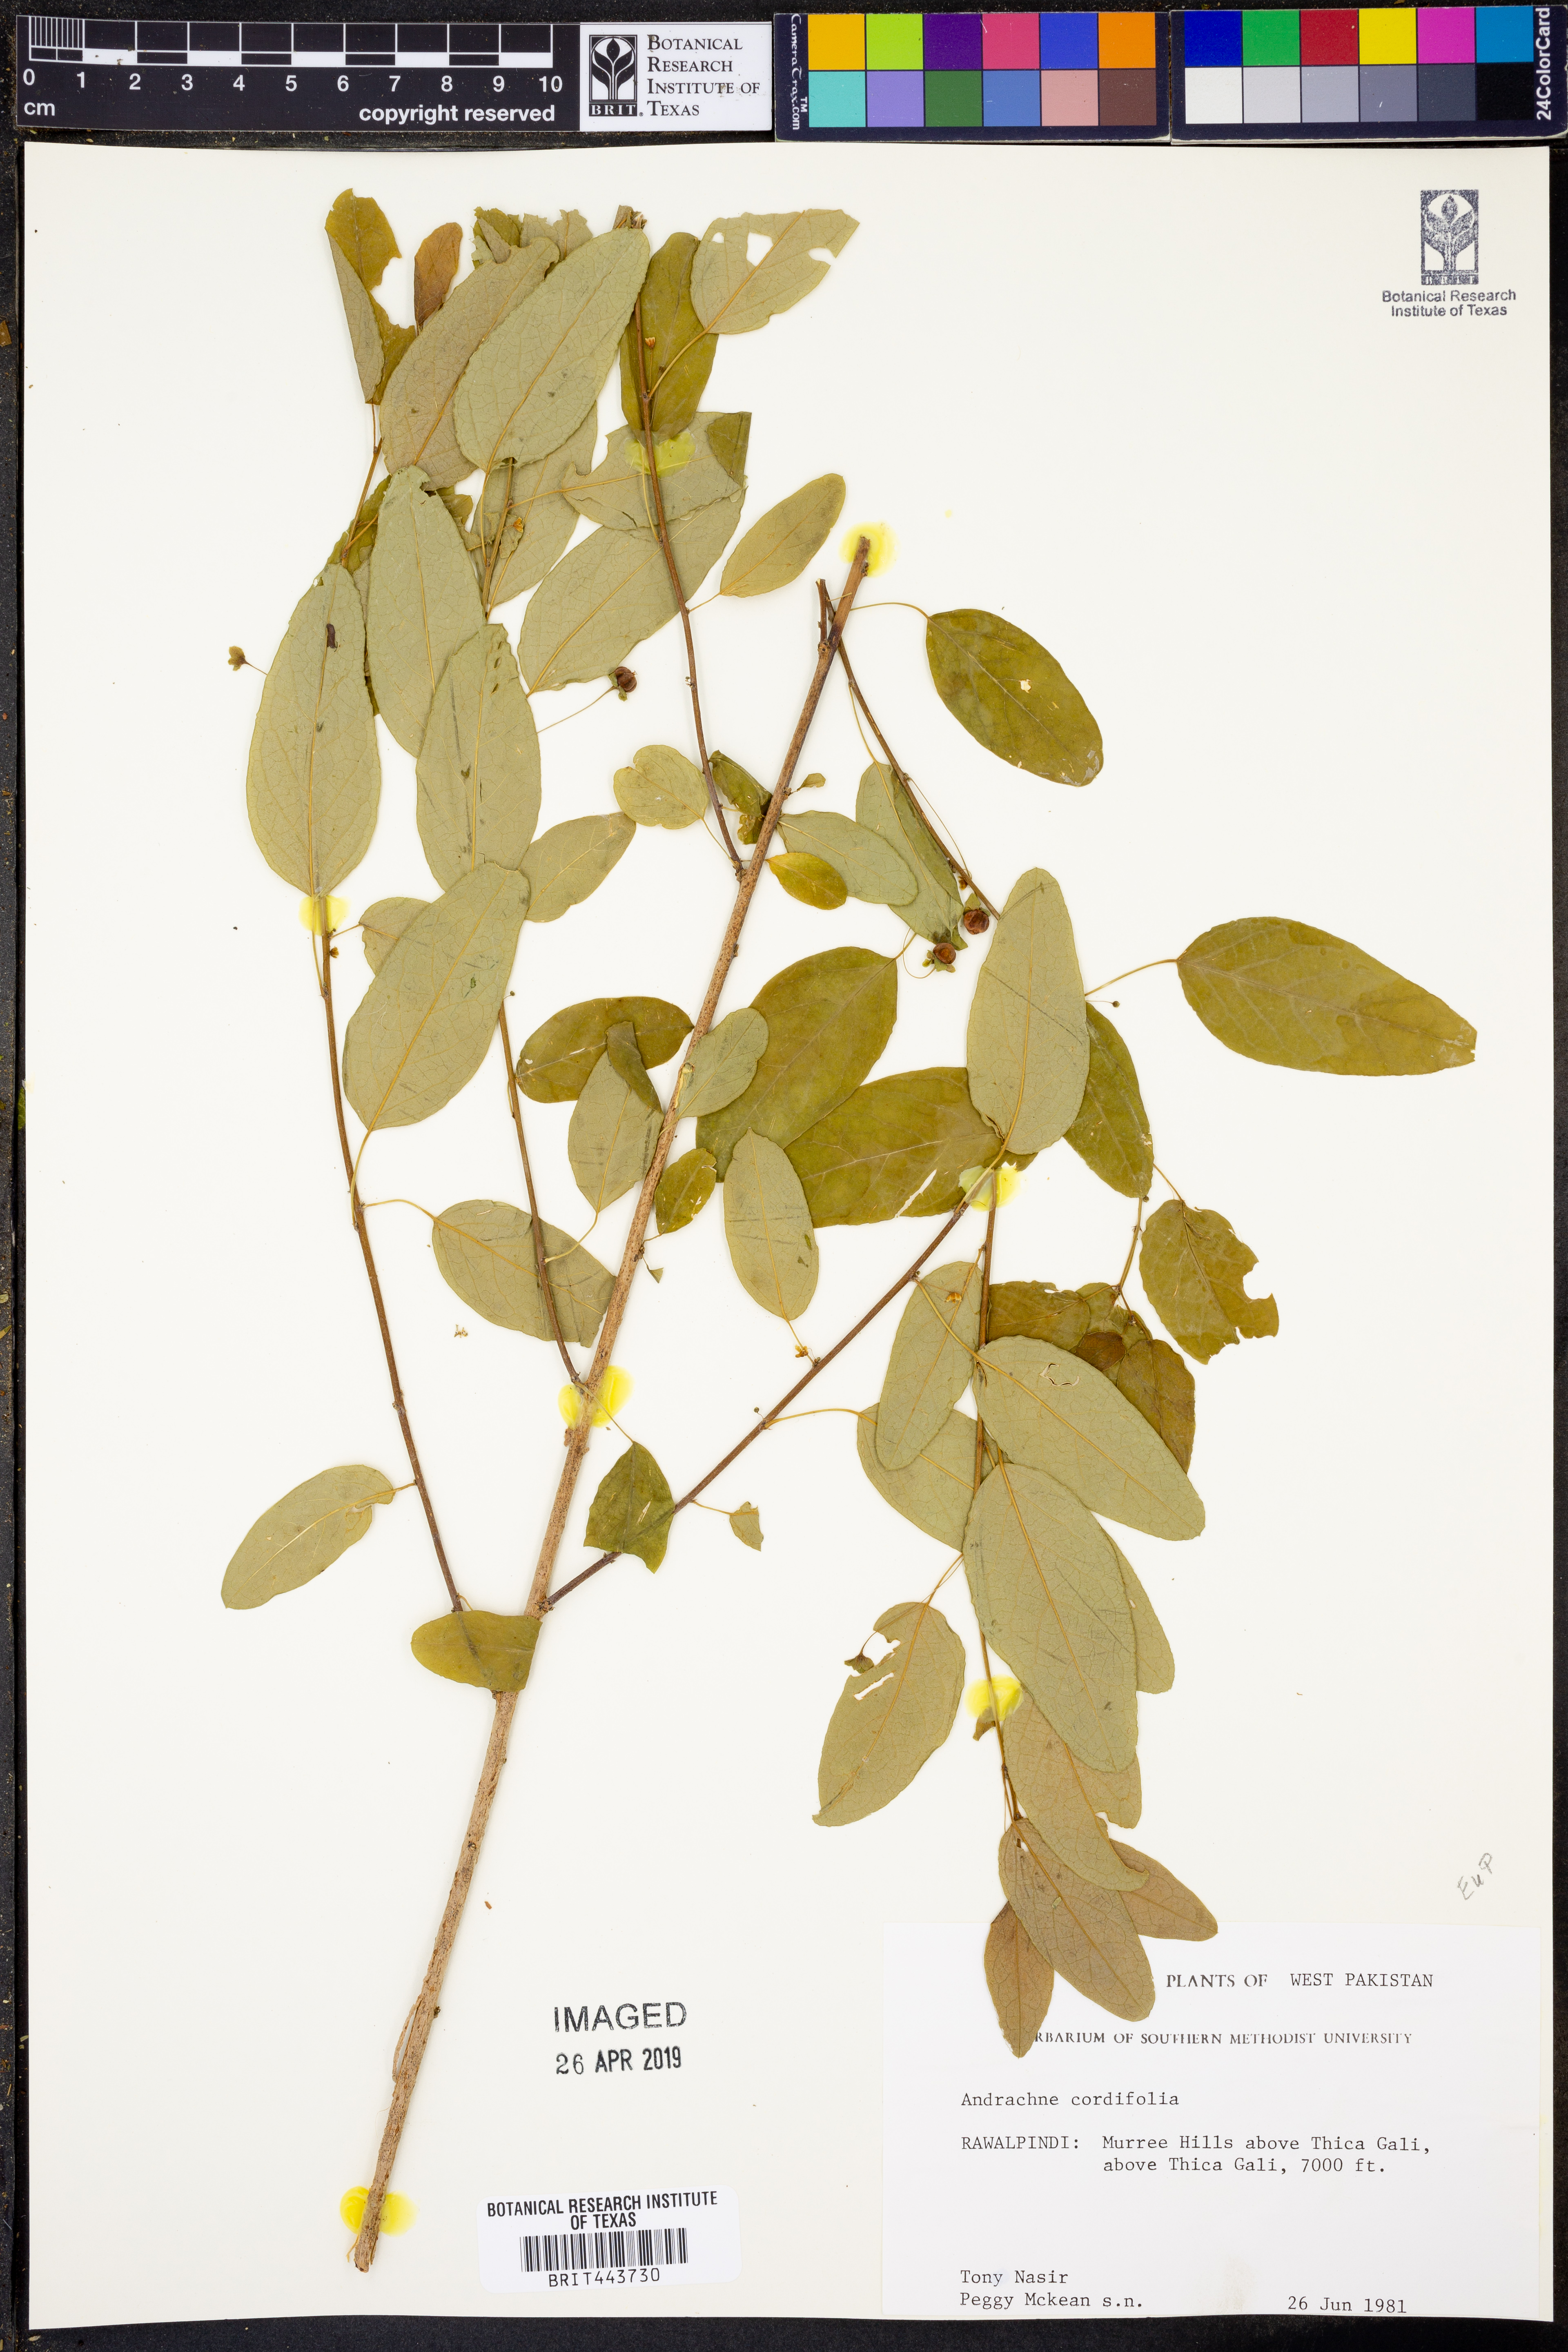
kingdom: Plantae
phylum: Tracheophyta
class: Magnoliopsida
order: Malpighiales
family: Phyllanthaceae
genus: Leptopus
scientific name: Leptopus cordifolius
